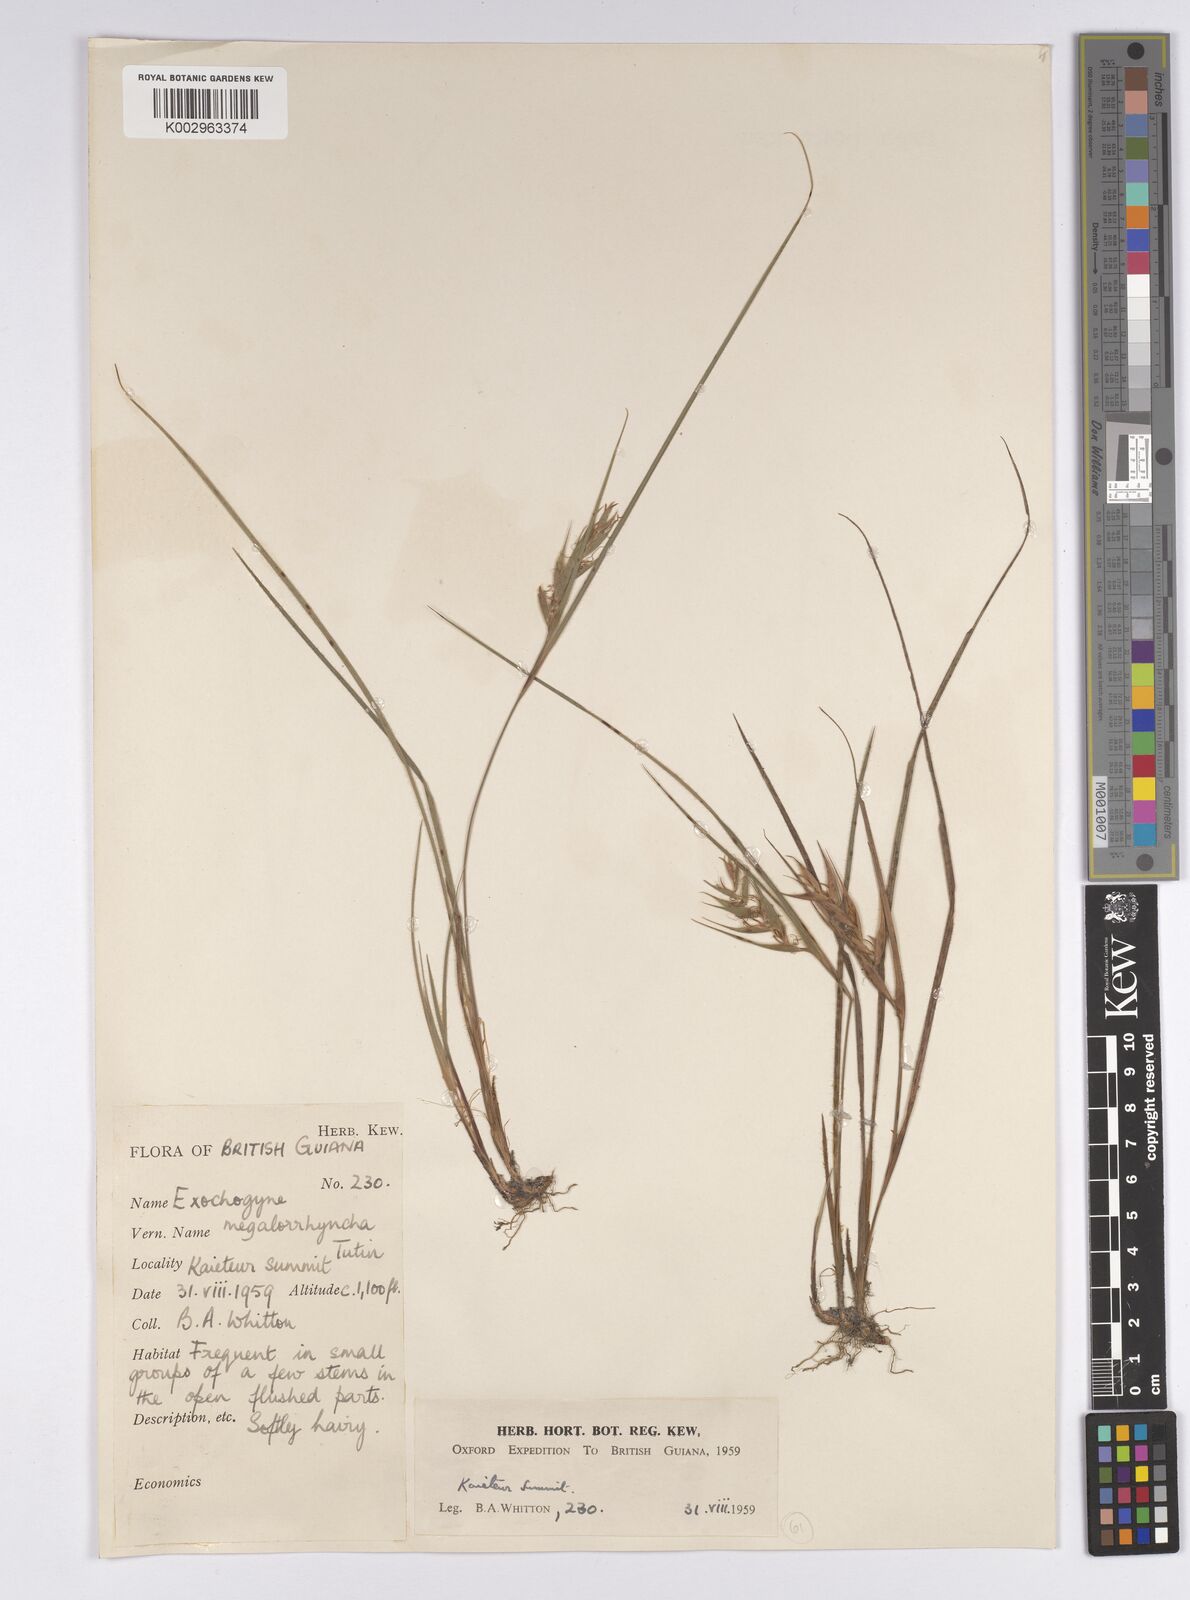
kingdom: Plantae
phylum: Tracheophyta
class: Liliopsida
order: Poales
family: Cyperaceae
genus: Exochogyne
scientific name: Exochogyne amazonica
